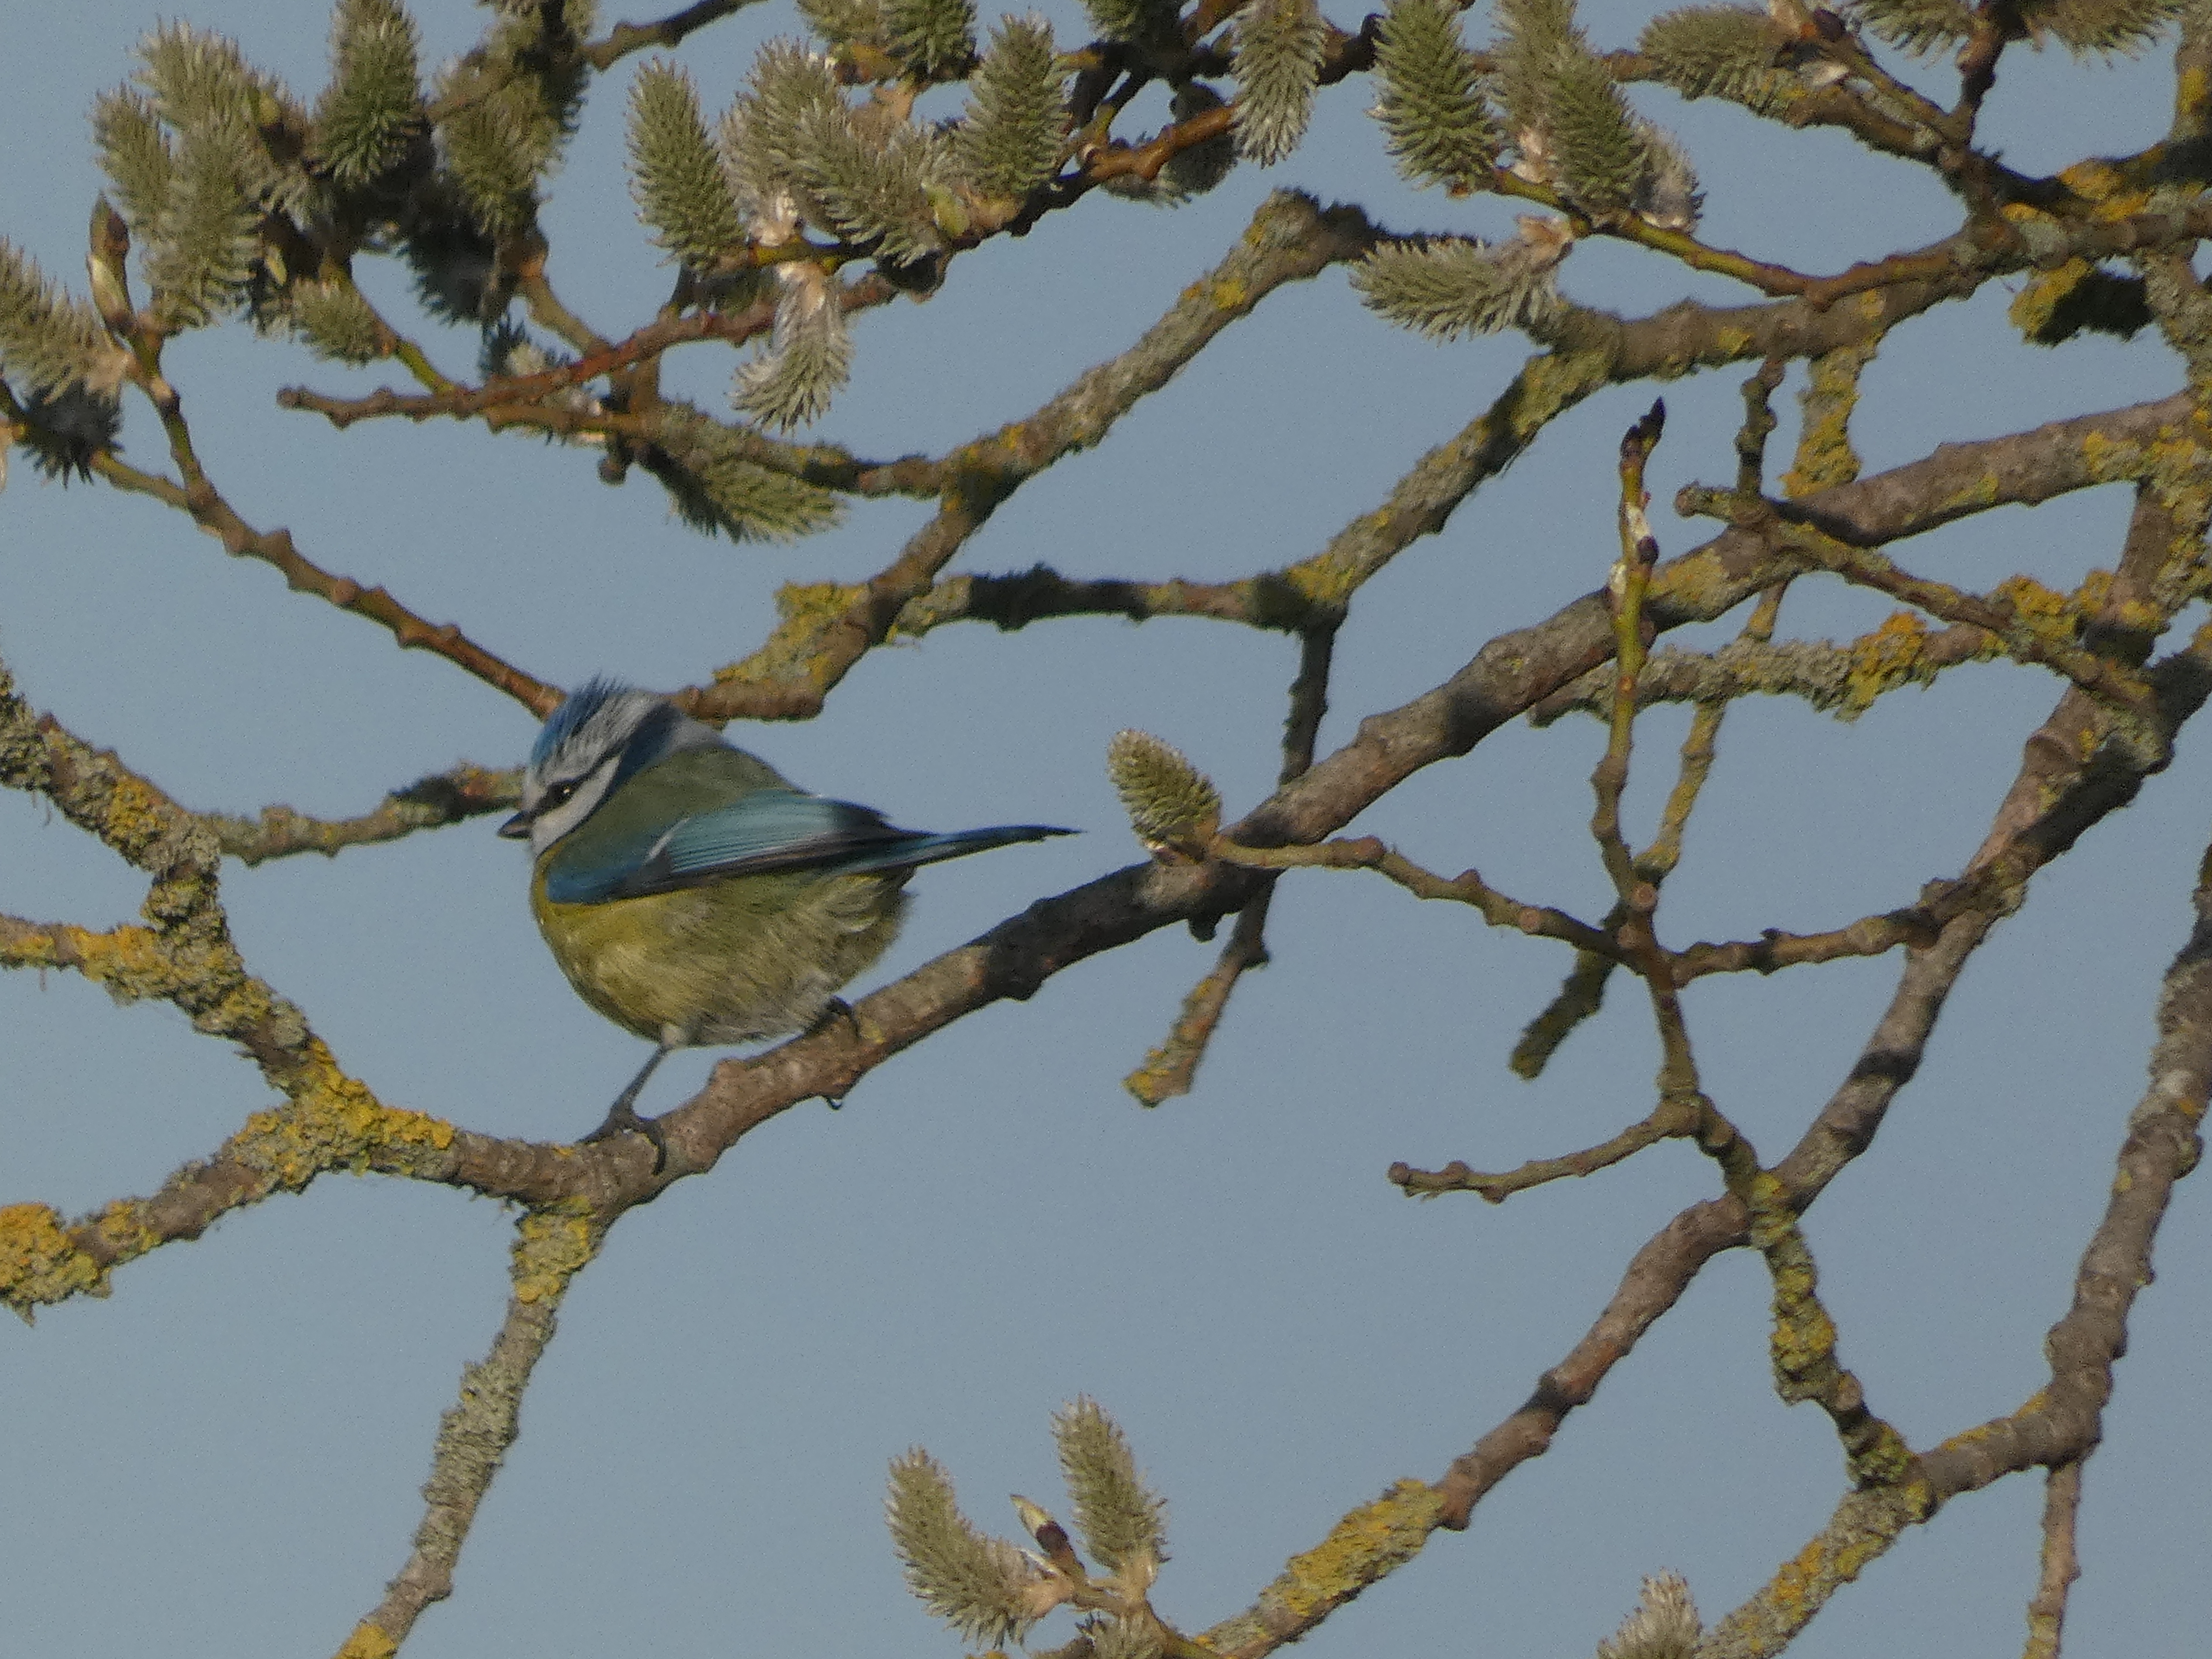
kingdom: Animalia
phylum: Chordata
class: Aves
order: Passeriformes
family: Paridae
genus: Cyanistes
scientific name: Cyanistes caeruleus
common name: Blåmejse
